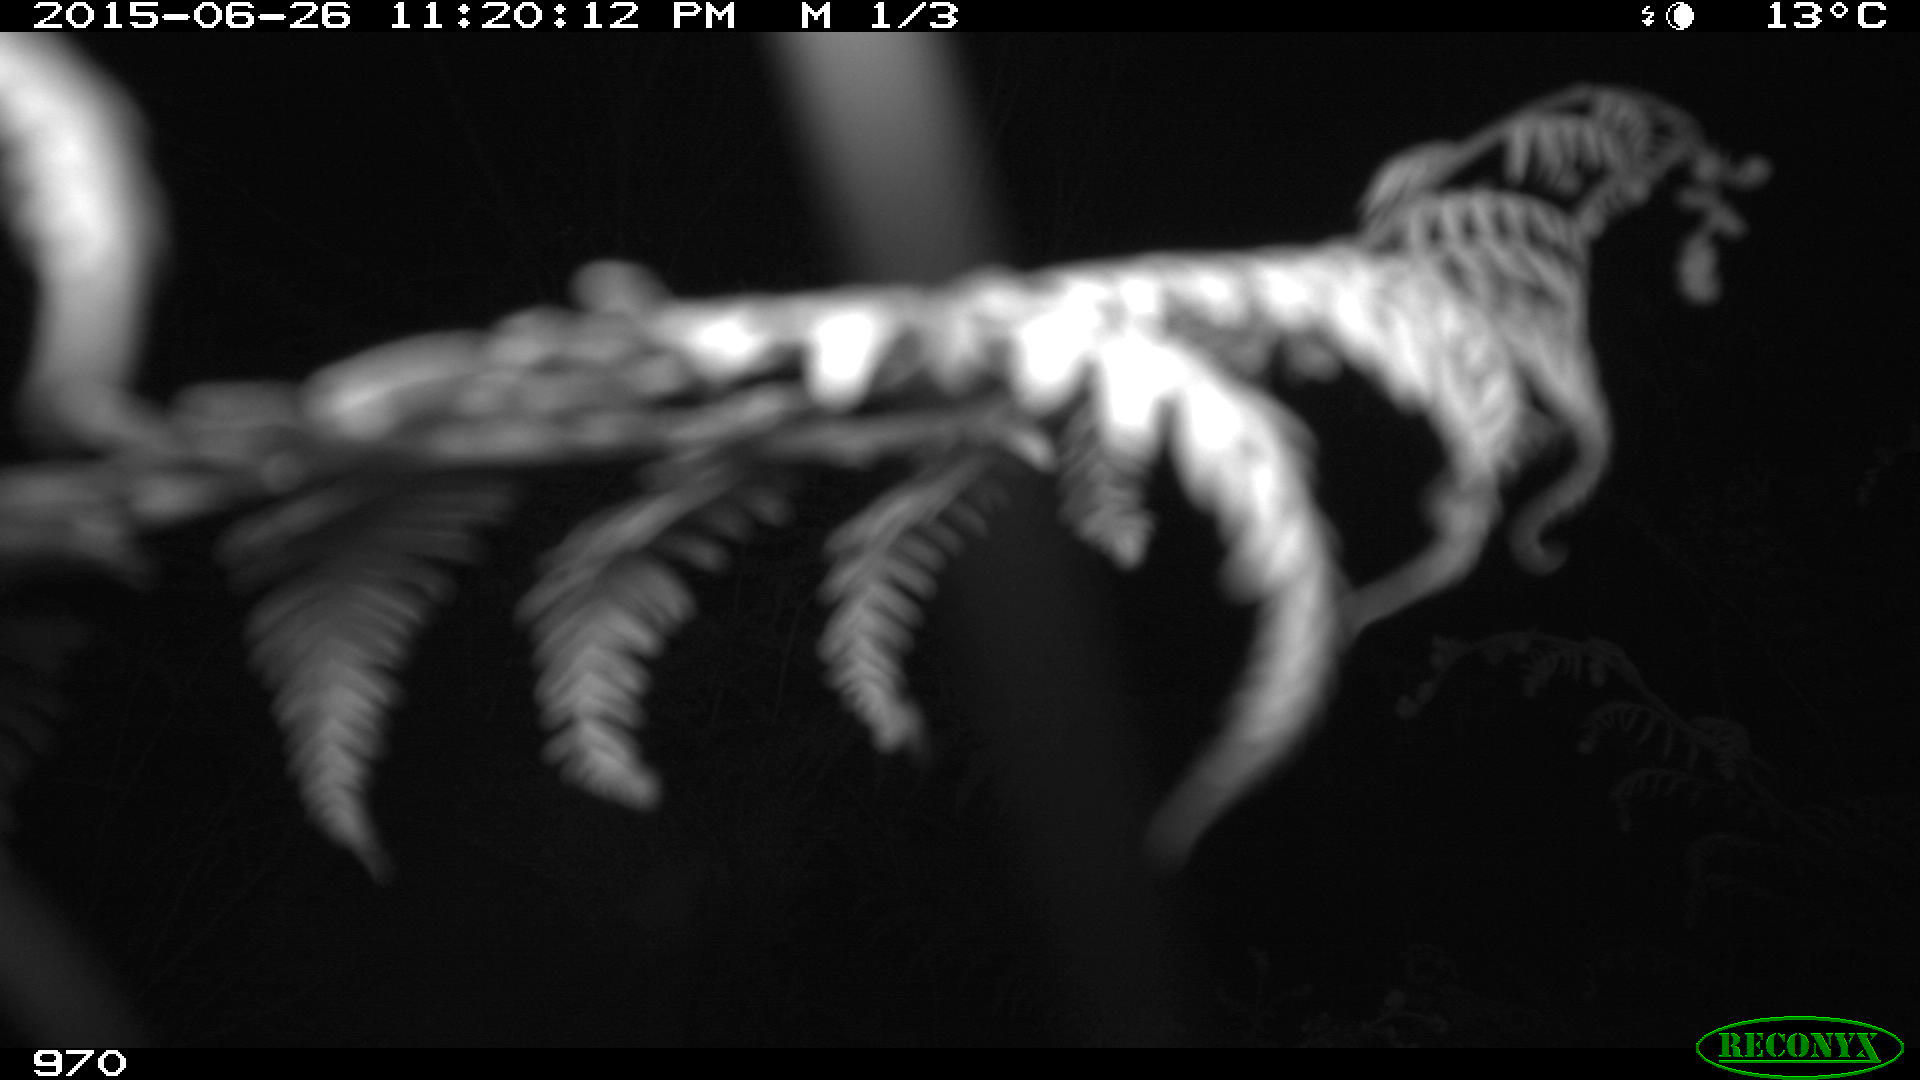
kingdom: Animalia
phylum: Chordata
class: Mammalia
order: Artiodactyla
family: Cervidae
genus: Capreolus
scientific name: Capreolus capreolus
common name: Western roe deer
